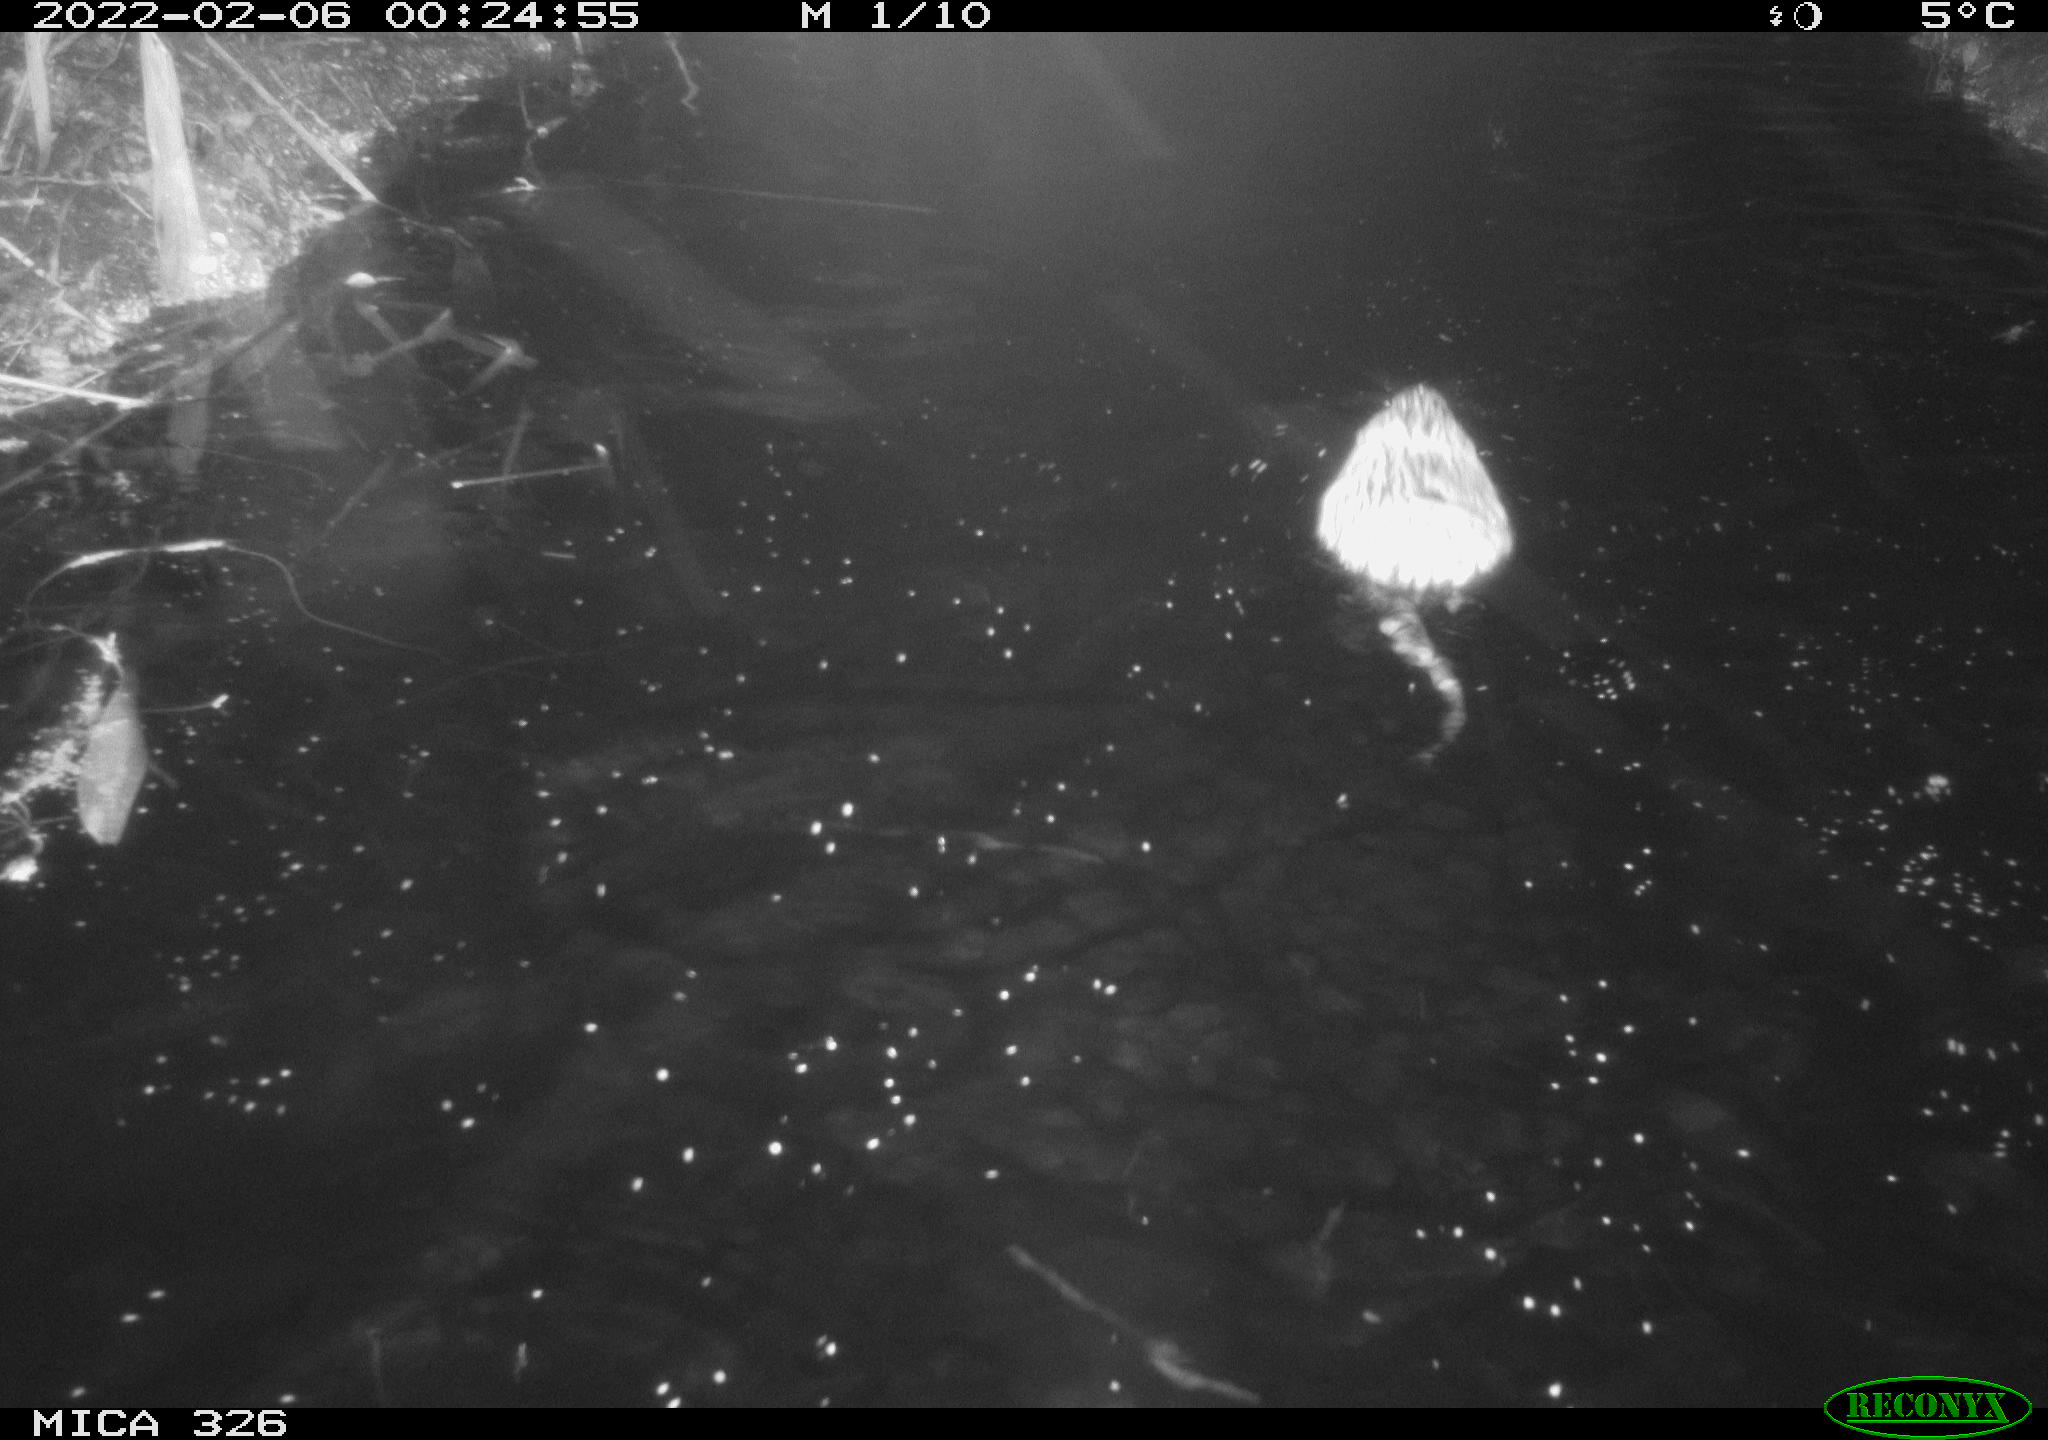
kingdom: Animalia
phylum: Chordata
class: Mammalia
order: Rodentia
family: Cricetidae
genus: Ondatra
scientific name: Ondatra zibethicus
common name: Muskrat
